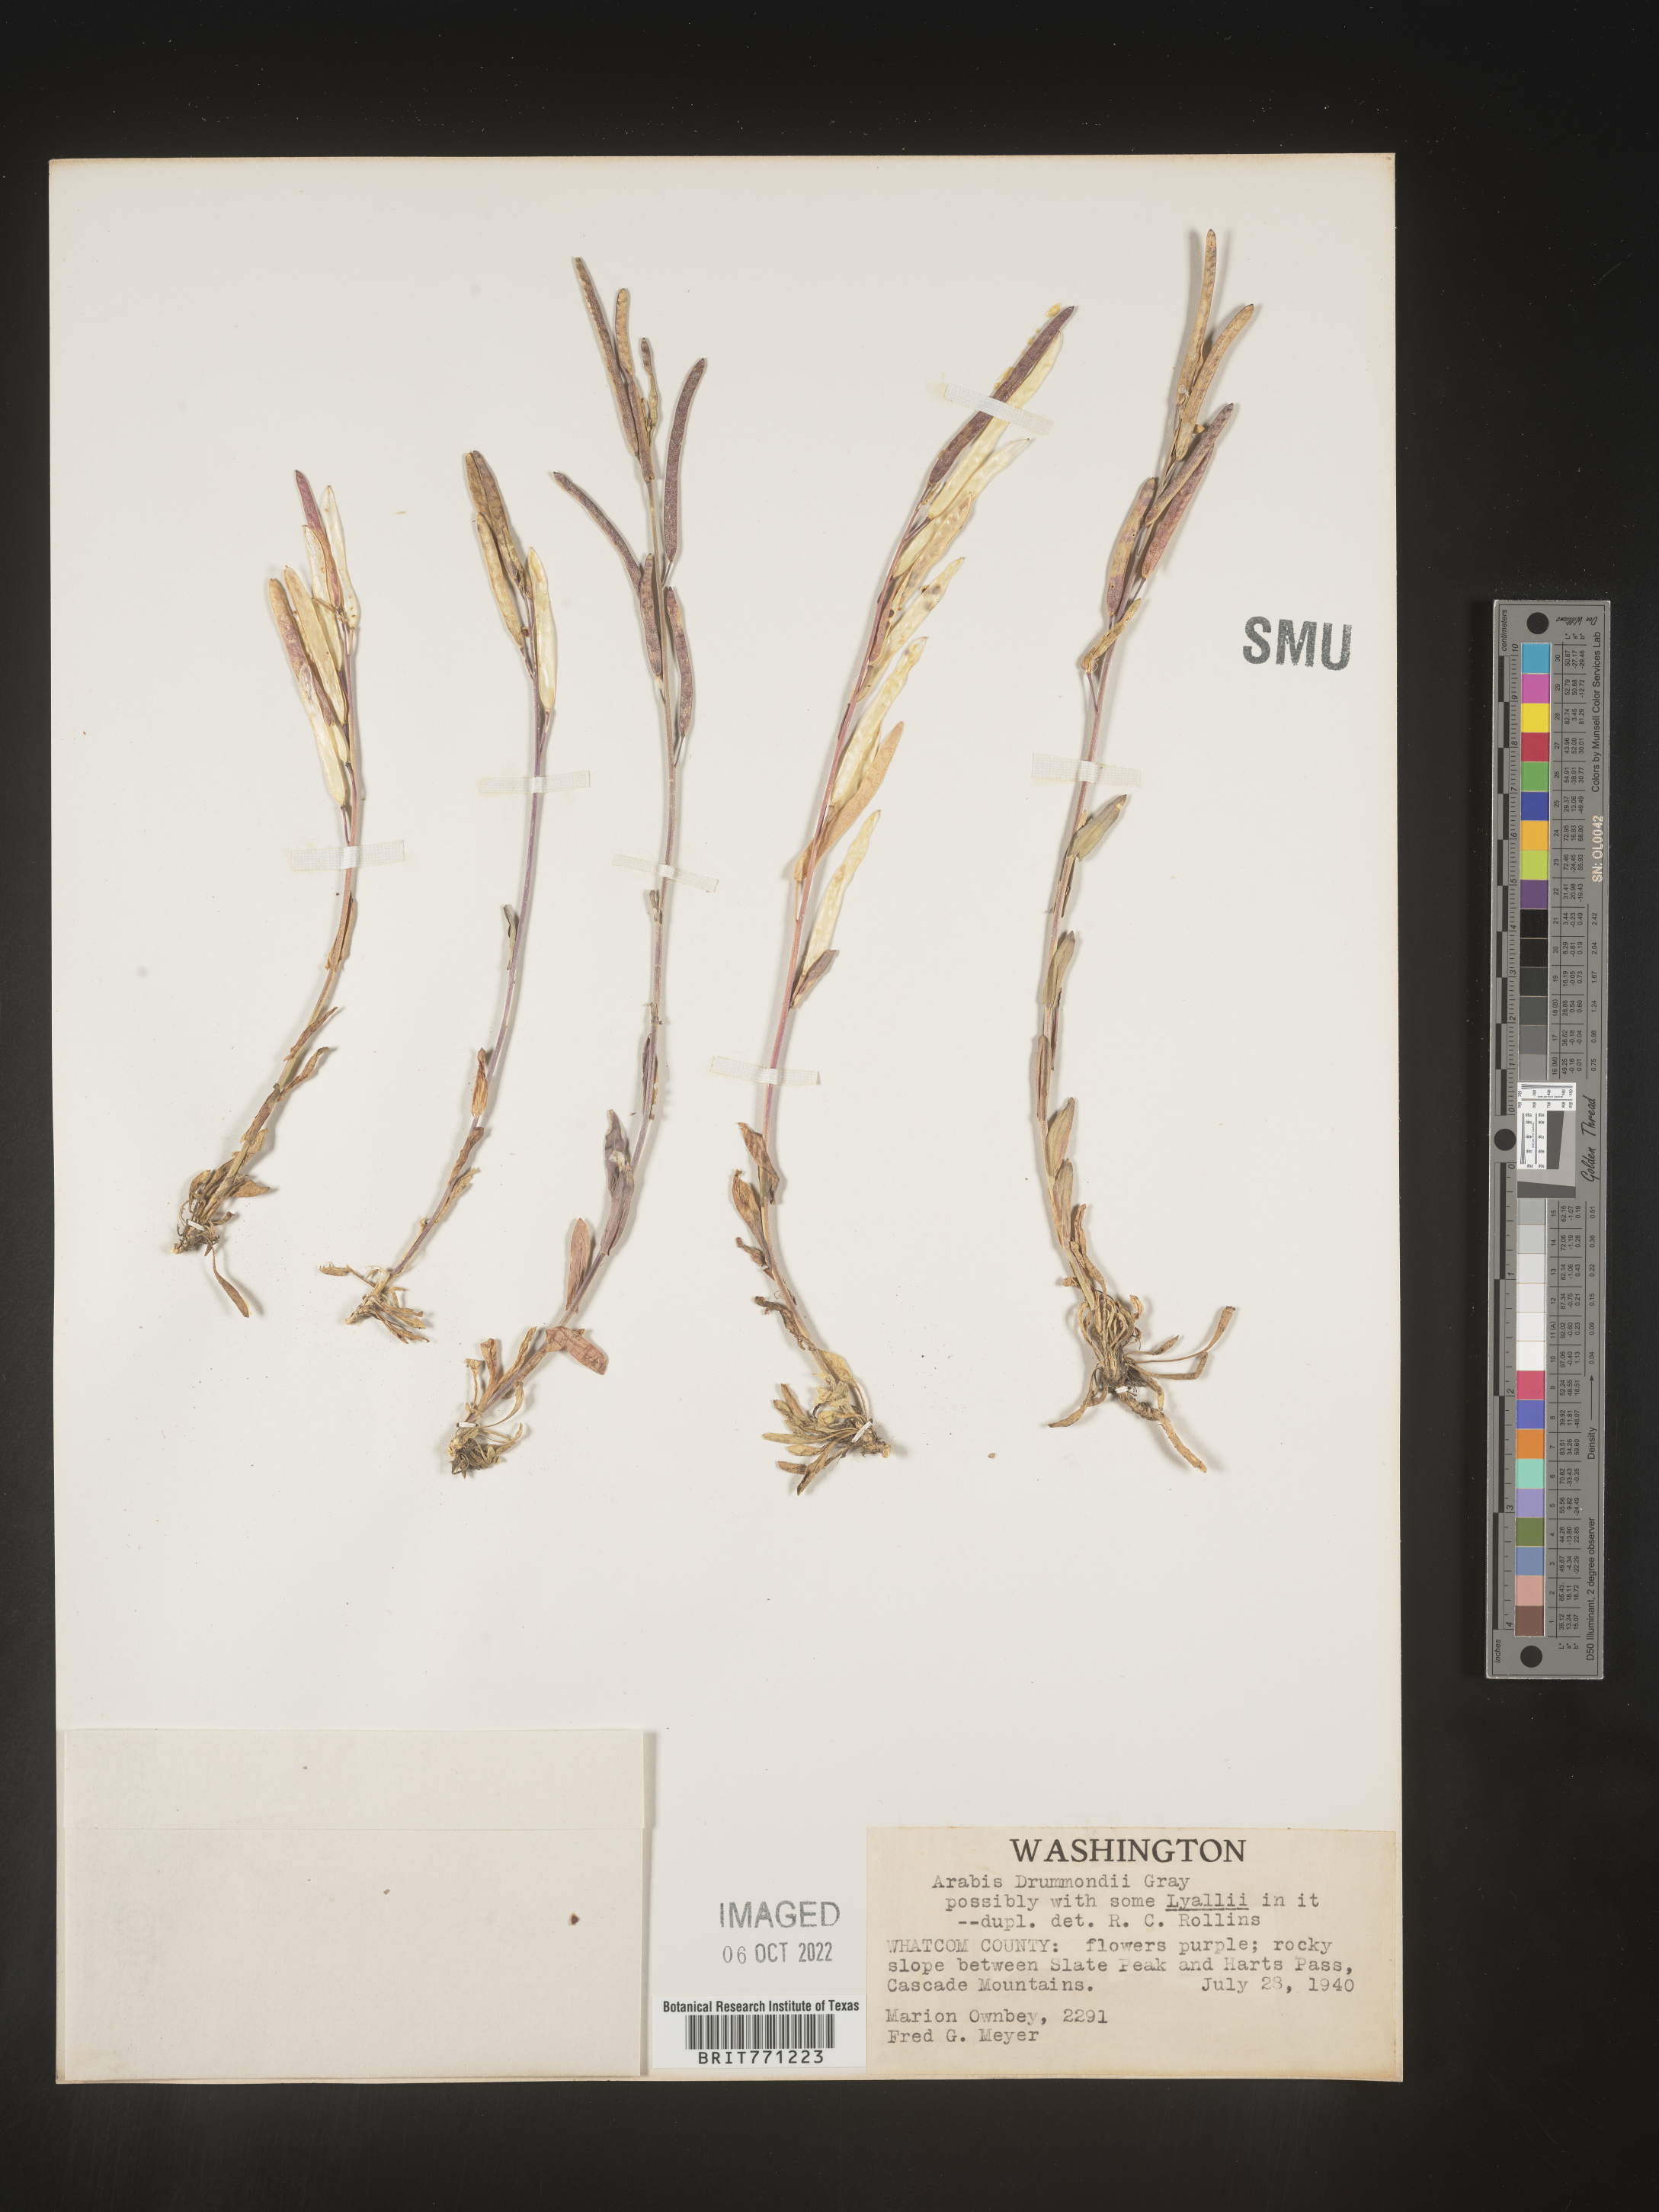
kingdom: Plantae
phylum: Tracheophyta
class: Magnoliopsida
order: Brassicales
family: Brassicaceae
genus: Boechera
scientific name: Boechera stricta
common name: Canadian rockcress
